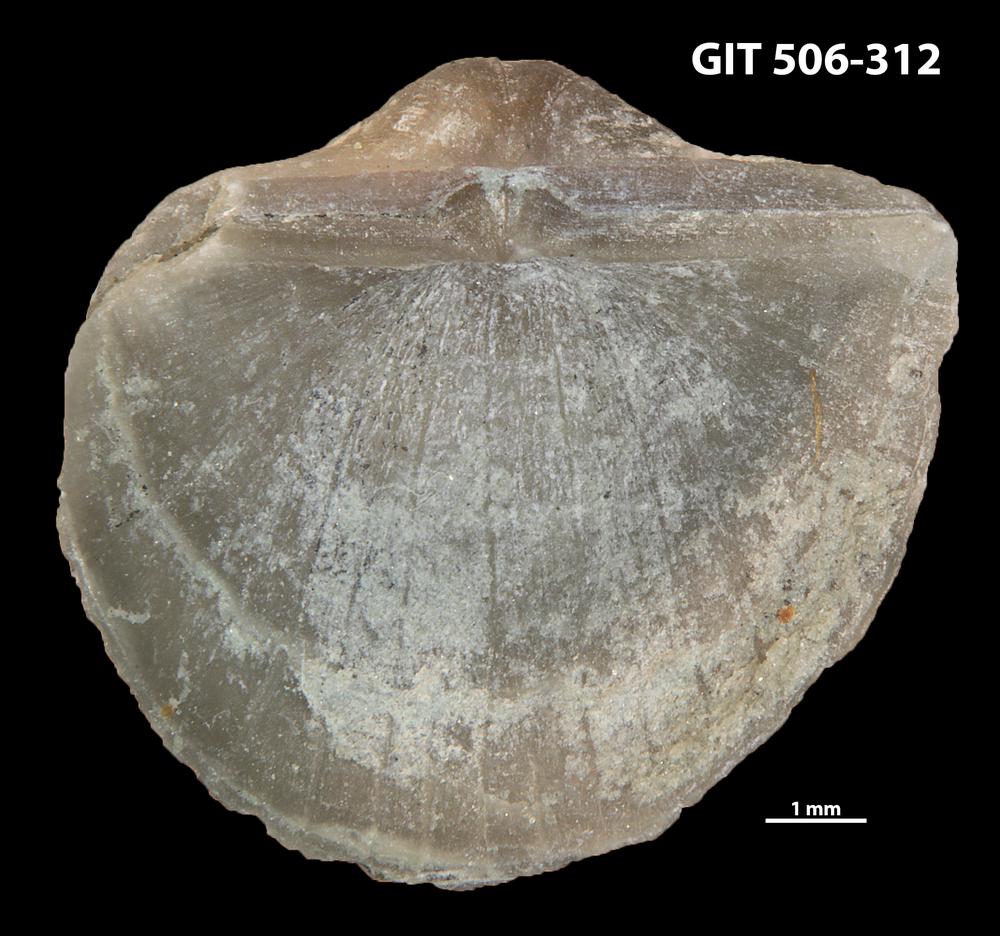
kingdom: Animalia
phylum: Brachiopoda
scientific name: Brachiopoda
